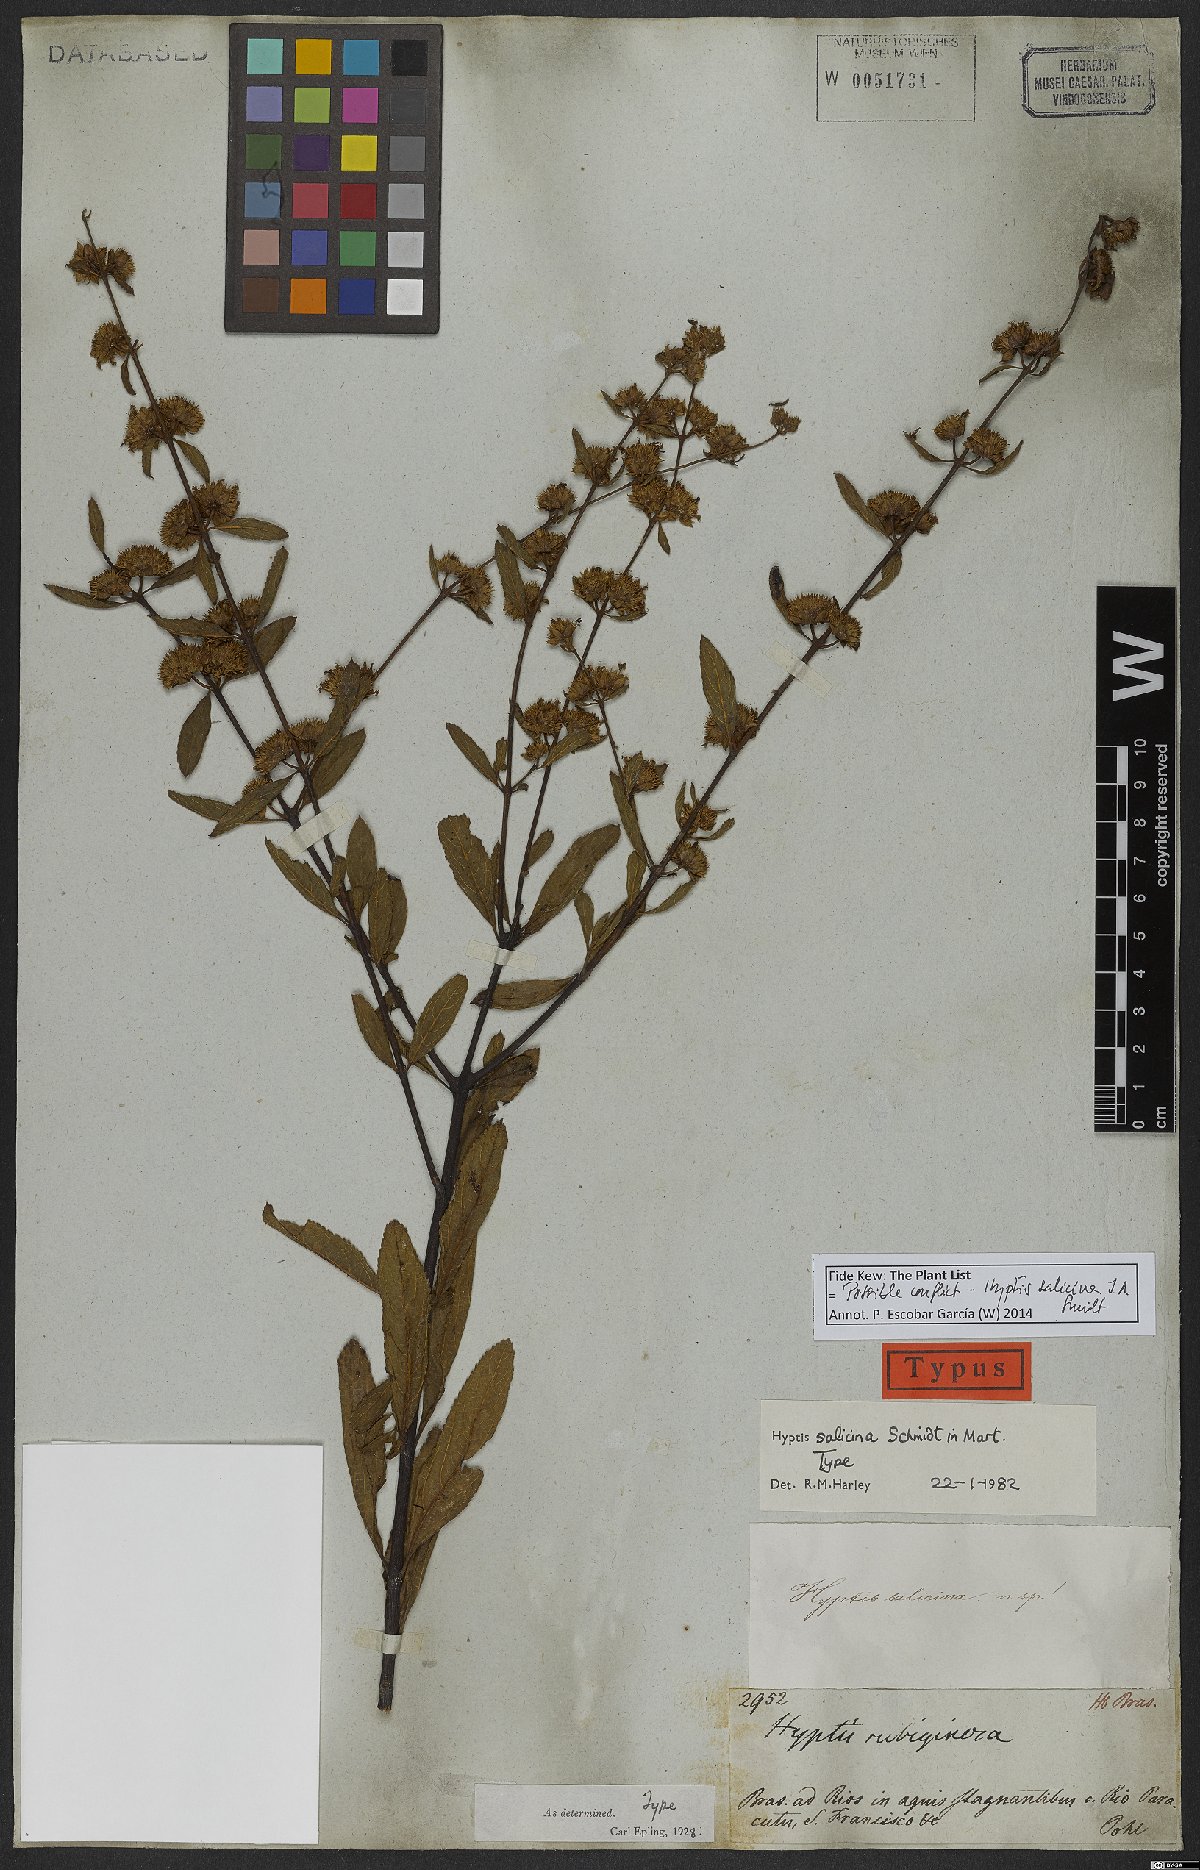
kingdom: Plantae
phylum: Tracheophyta
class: Magnoliopsida
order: Lamiales
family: Lamiaceae
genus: Hyptis
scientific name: Hyptis salicina
